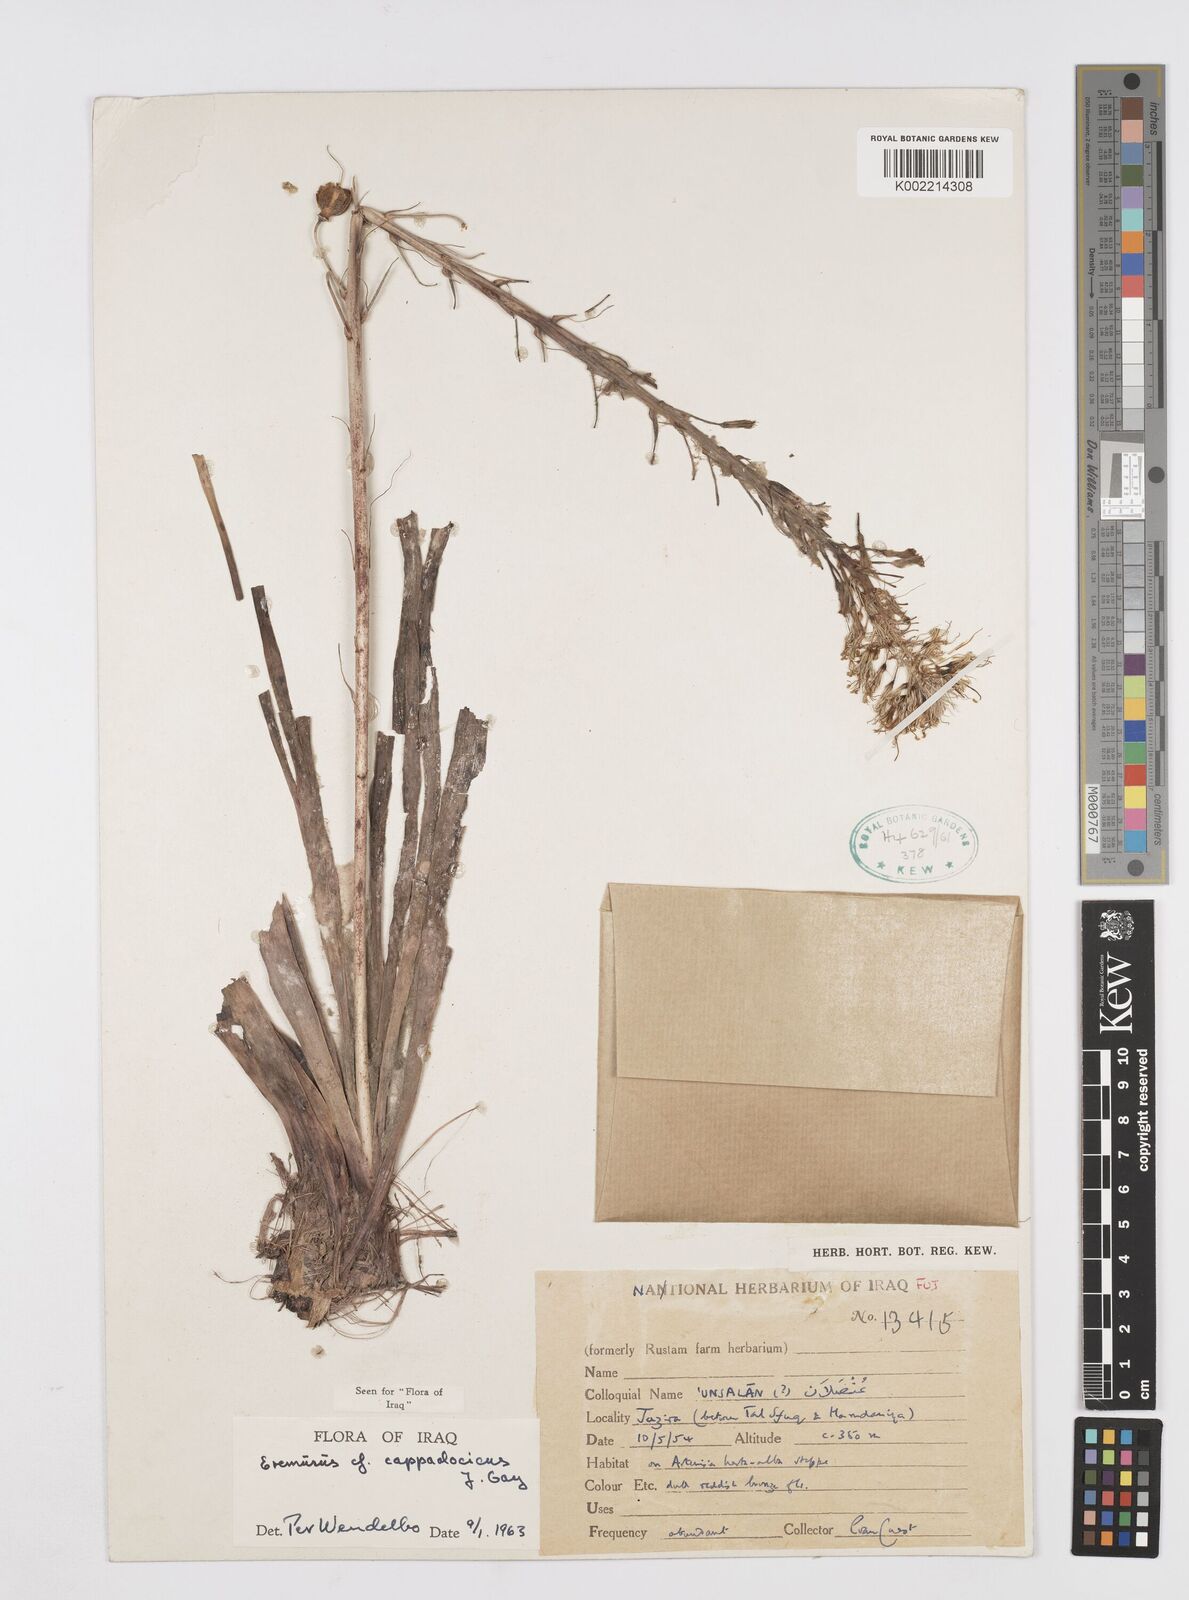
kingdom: Plantae
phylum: Tracheophyta
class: Liliopsida
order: Asparagales
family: Asphodelaceae
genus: Eremurus
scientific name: Eremurus cappadocicus
